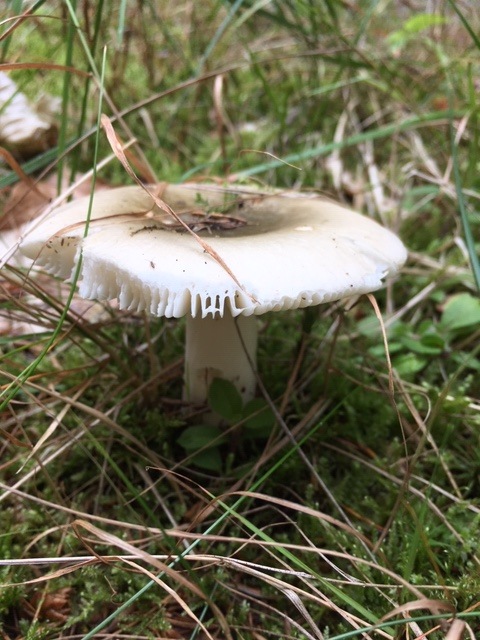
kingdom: Fungi
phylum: Basidiomycota
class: Agaricomycetes
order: Russulales
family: Russulaceae
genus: Russula
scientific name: Russula aeruginea
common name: græsgrøn skørhat
